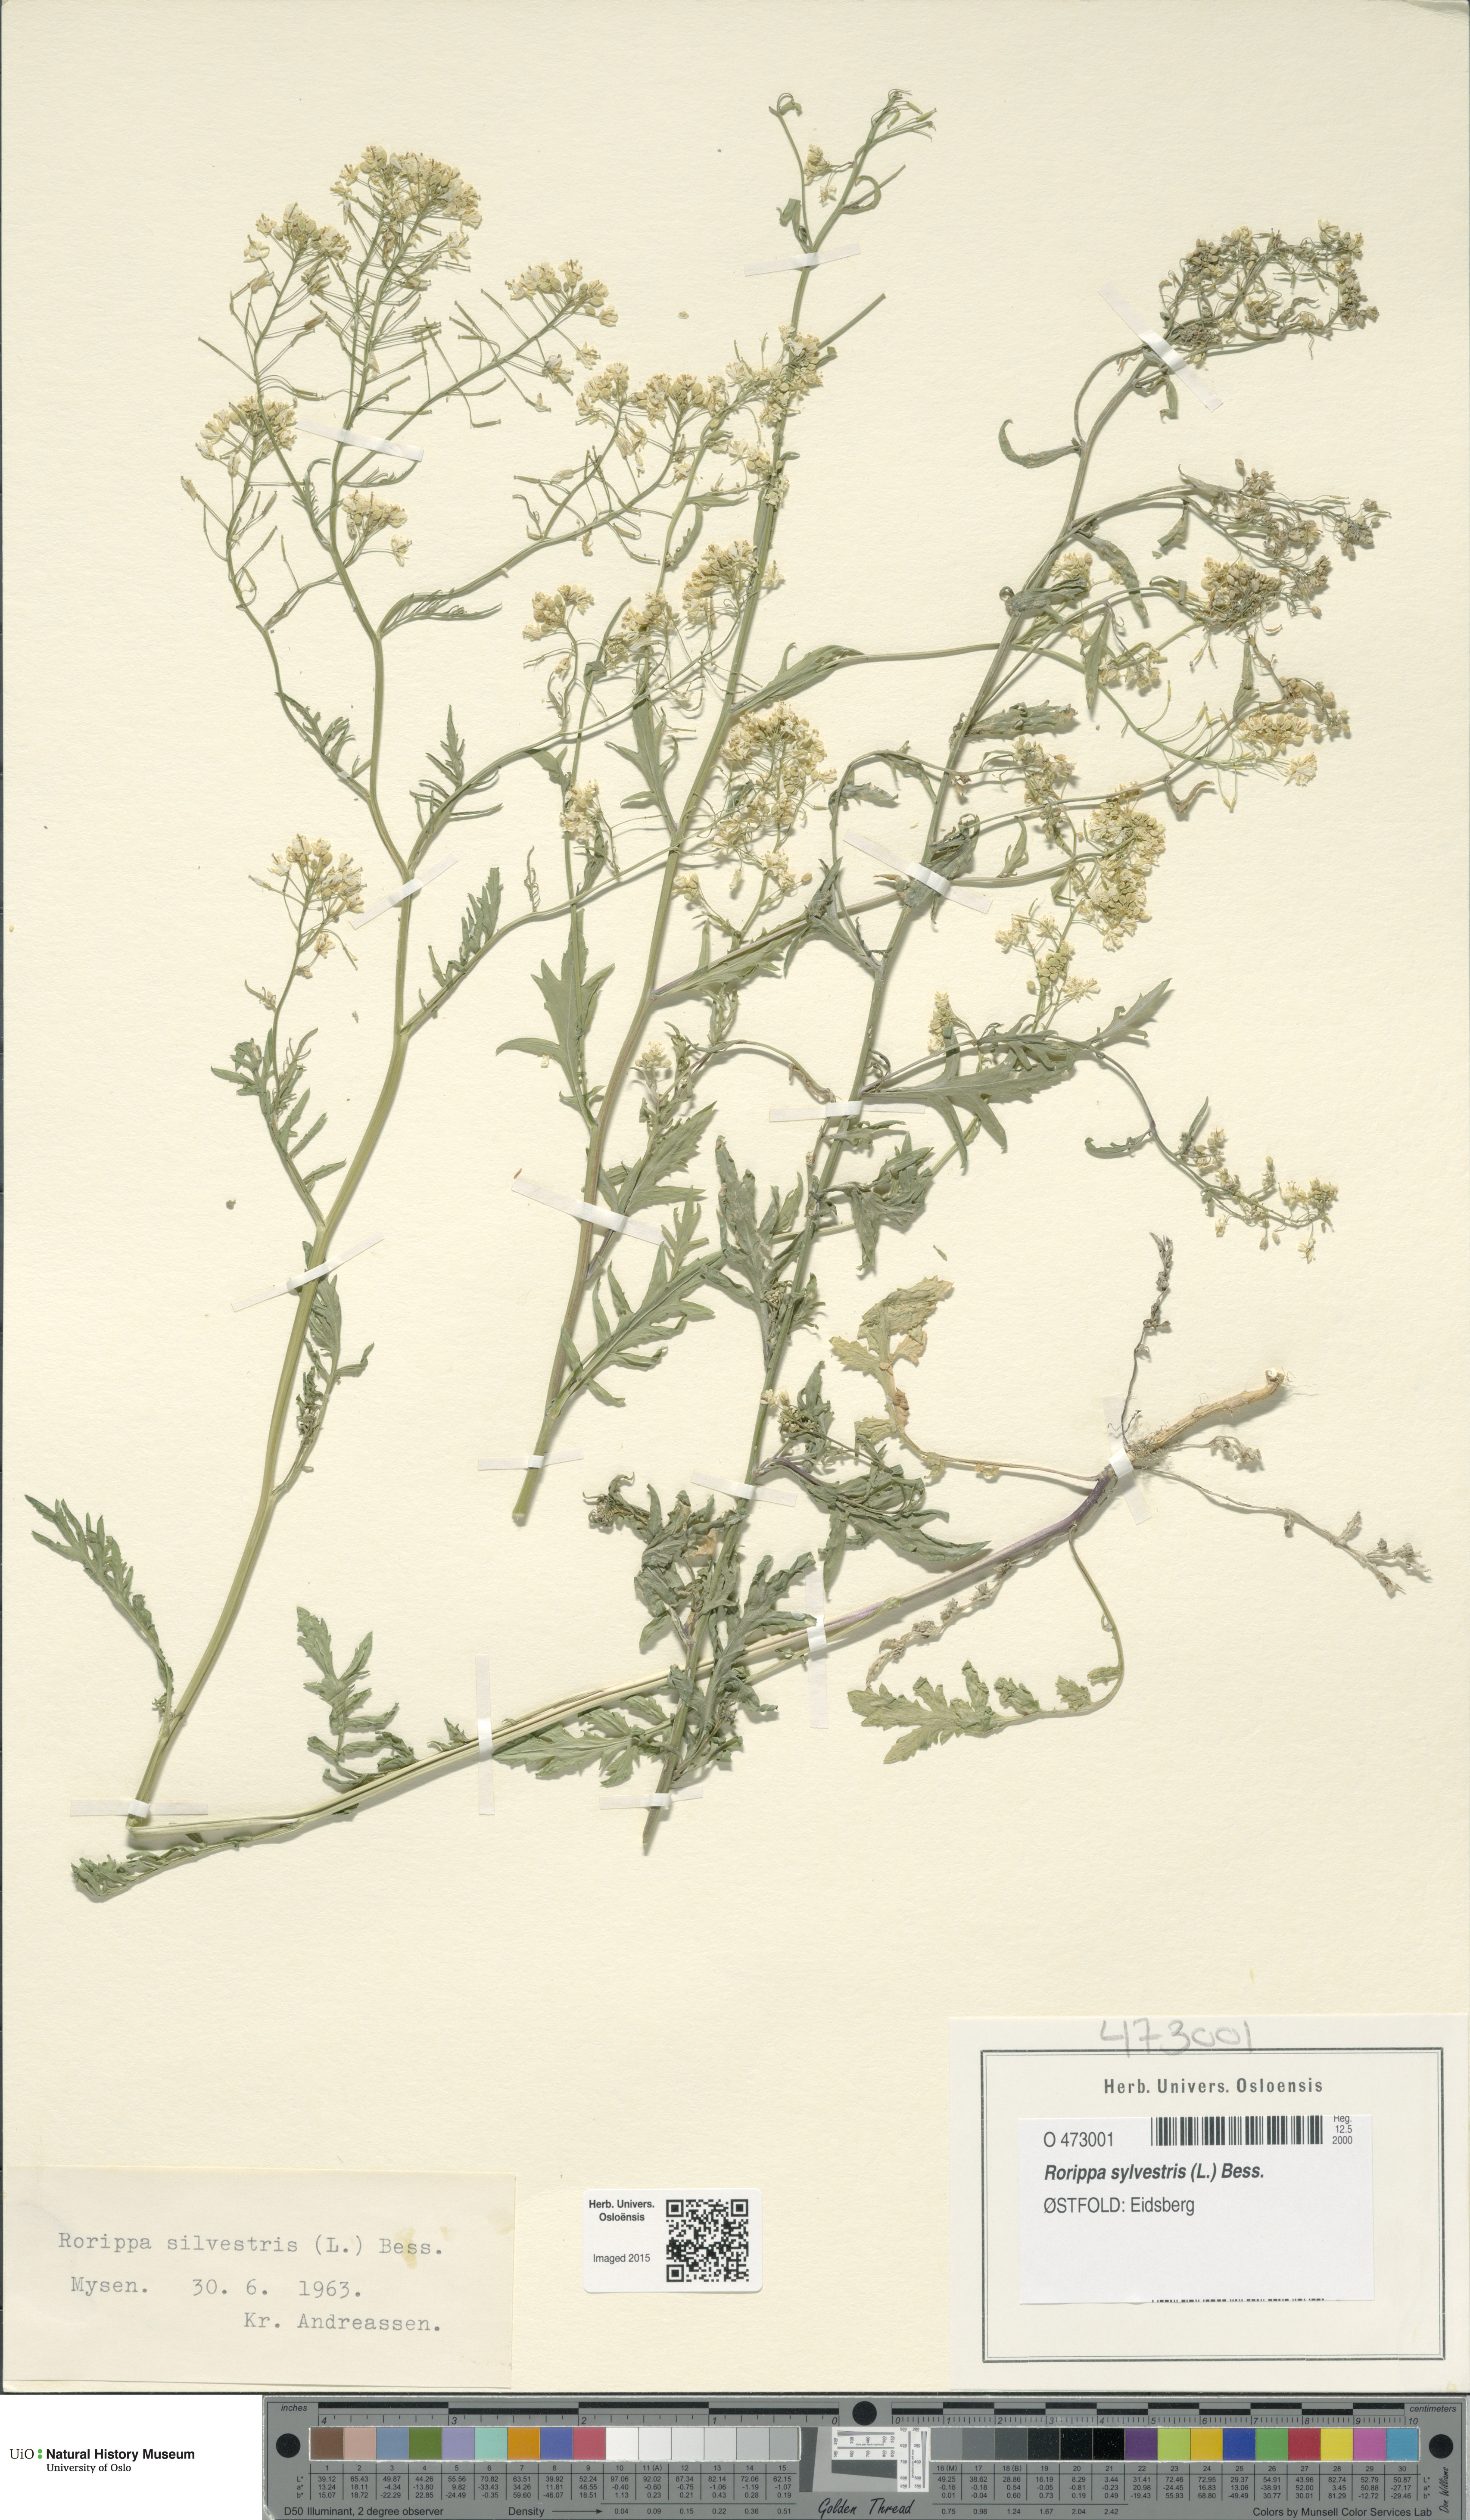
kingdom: Plantae
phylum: Tracheophyta
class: Magnoliopsida
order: Brassicales
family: Brassicaceae
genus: Rorippa
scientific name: Rorippa sylvestris
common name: Creeping yellowcress
